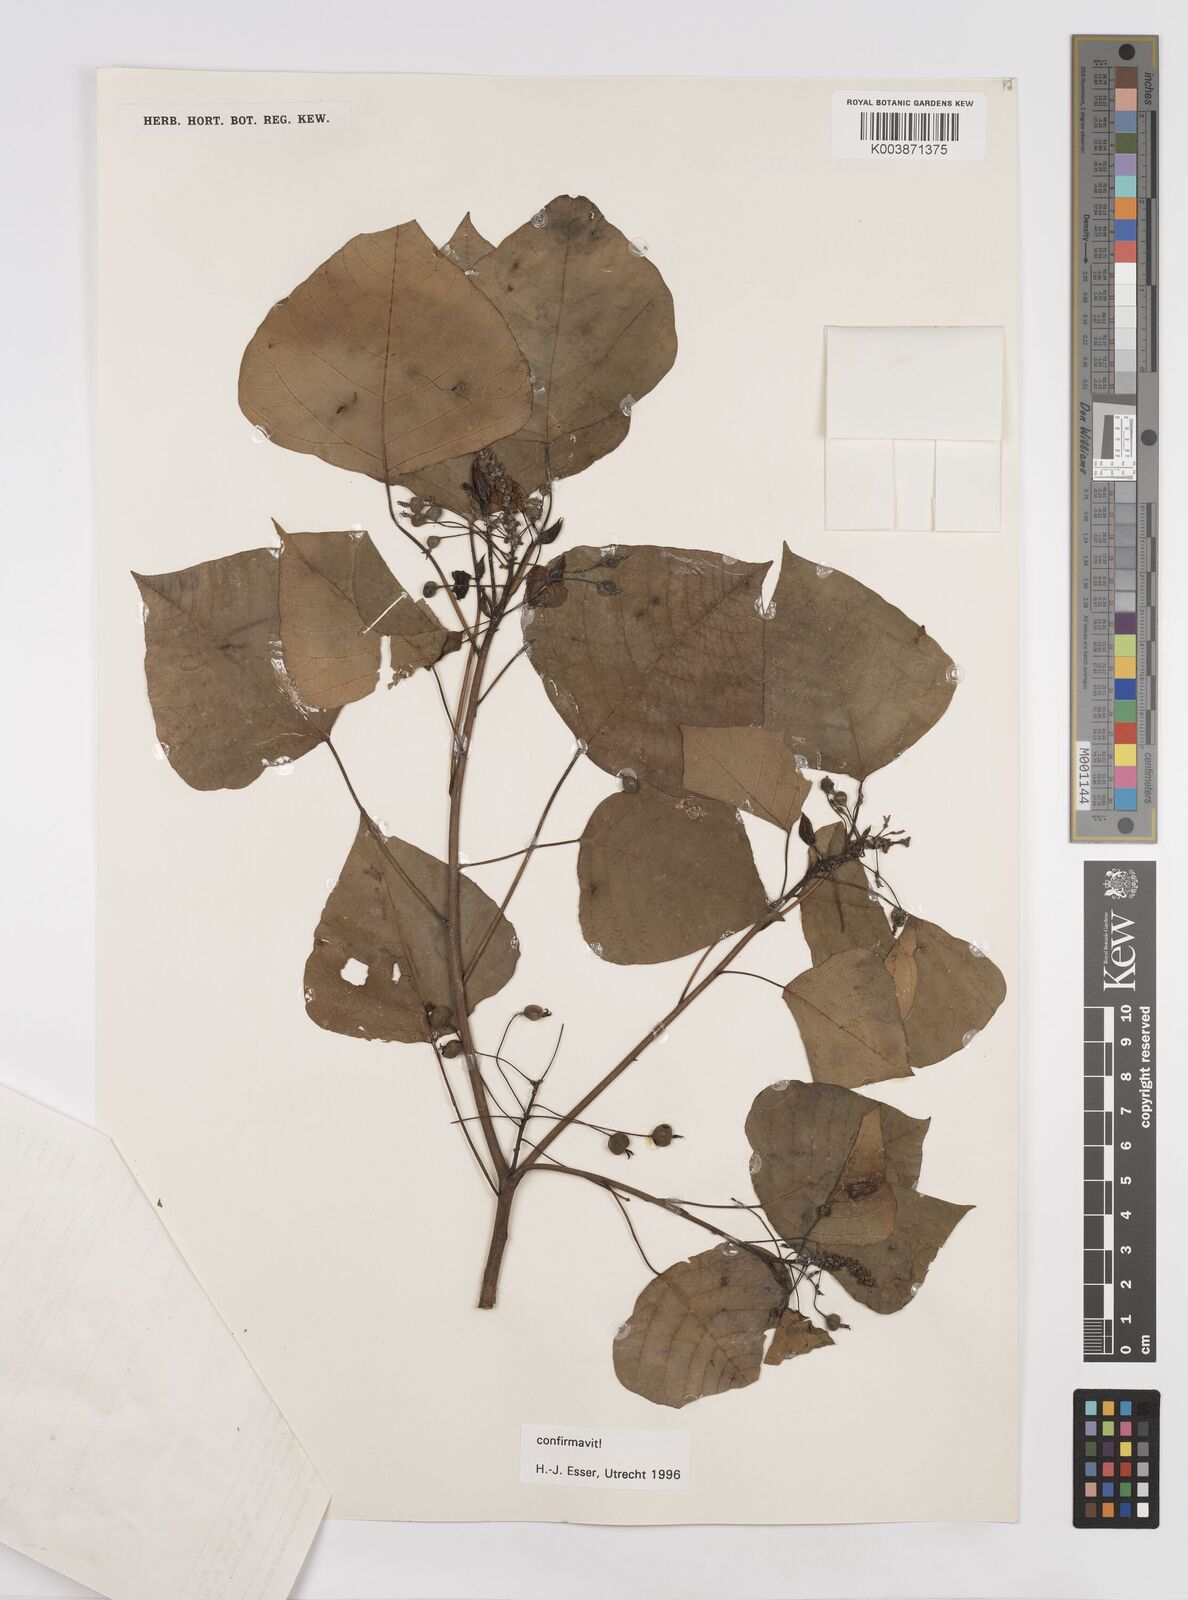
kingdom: Plantae
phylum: Tracheophyta
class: Magnoliopsida
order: Malpighiales
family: Euphorbiaceae
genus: Homalanthus
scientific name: Homalanthus populneus
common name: Spurge
